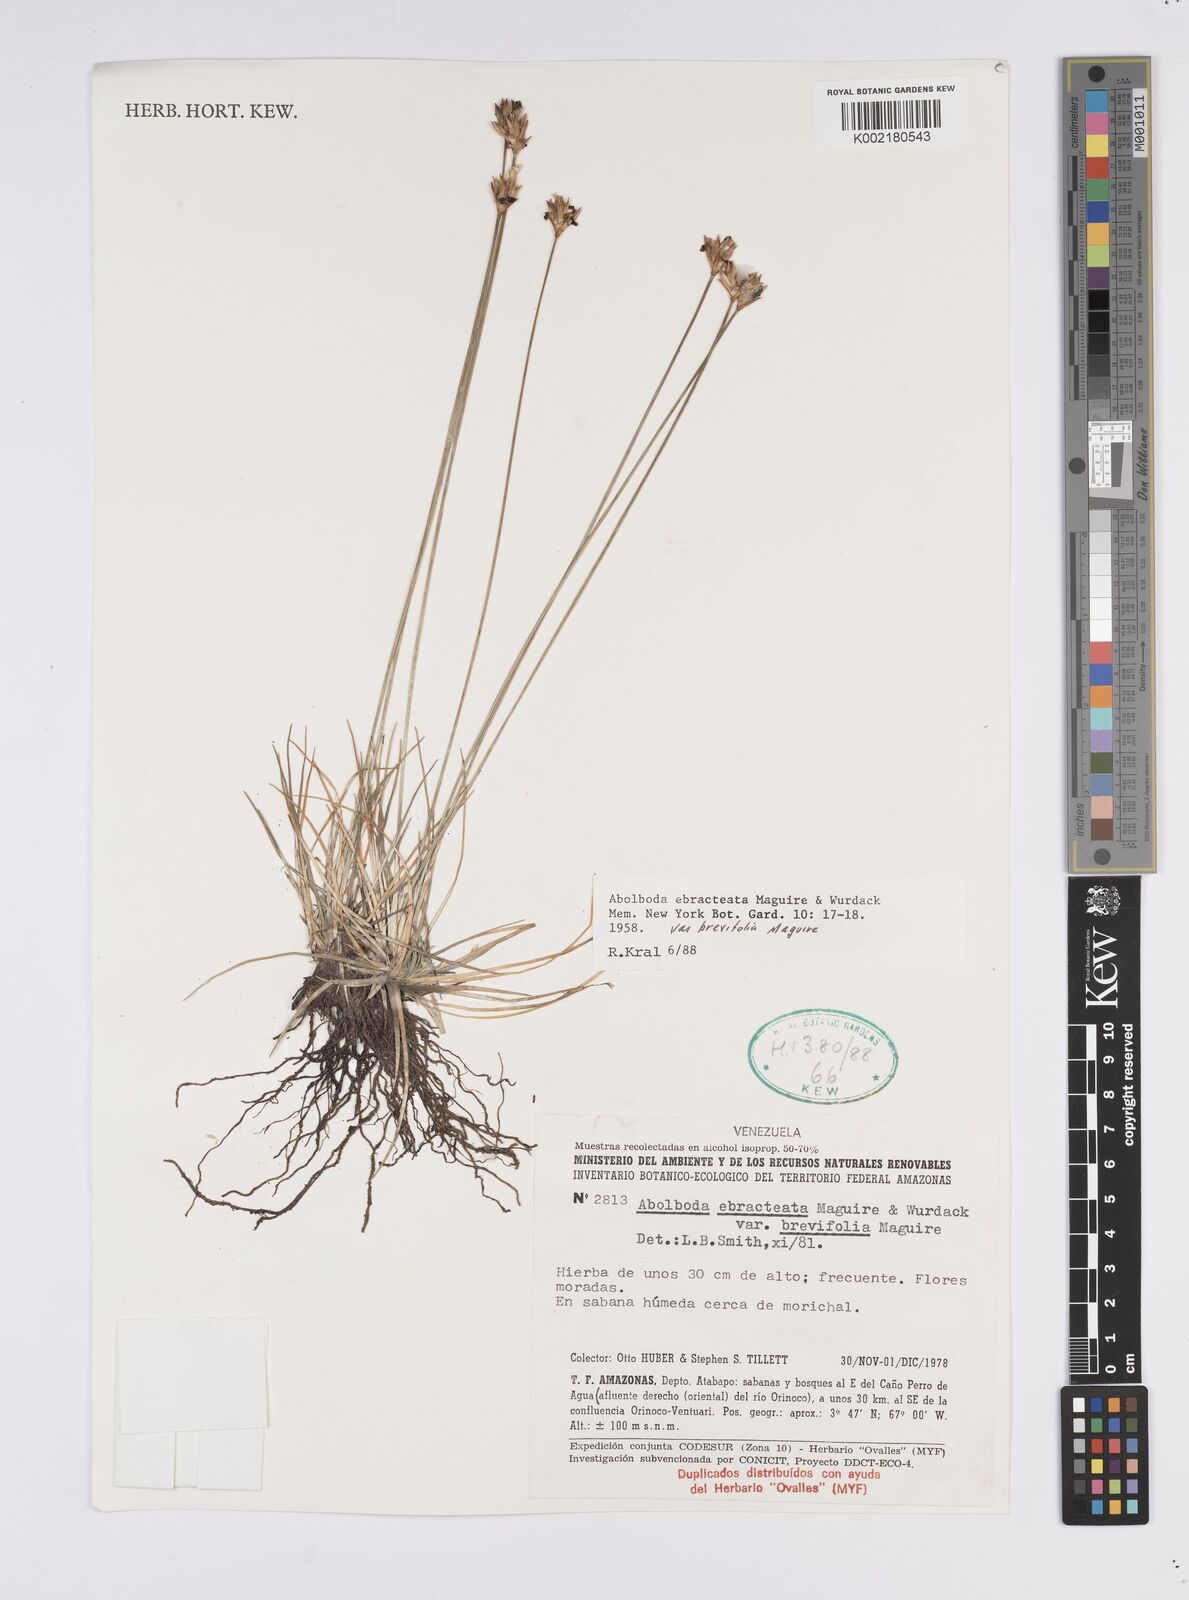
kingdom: Plantae
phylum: Tracheophyta
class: Liliopsida
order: Poales
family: Xyridaceae
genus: Abolboda
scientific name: Abolboda ebracteata
